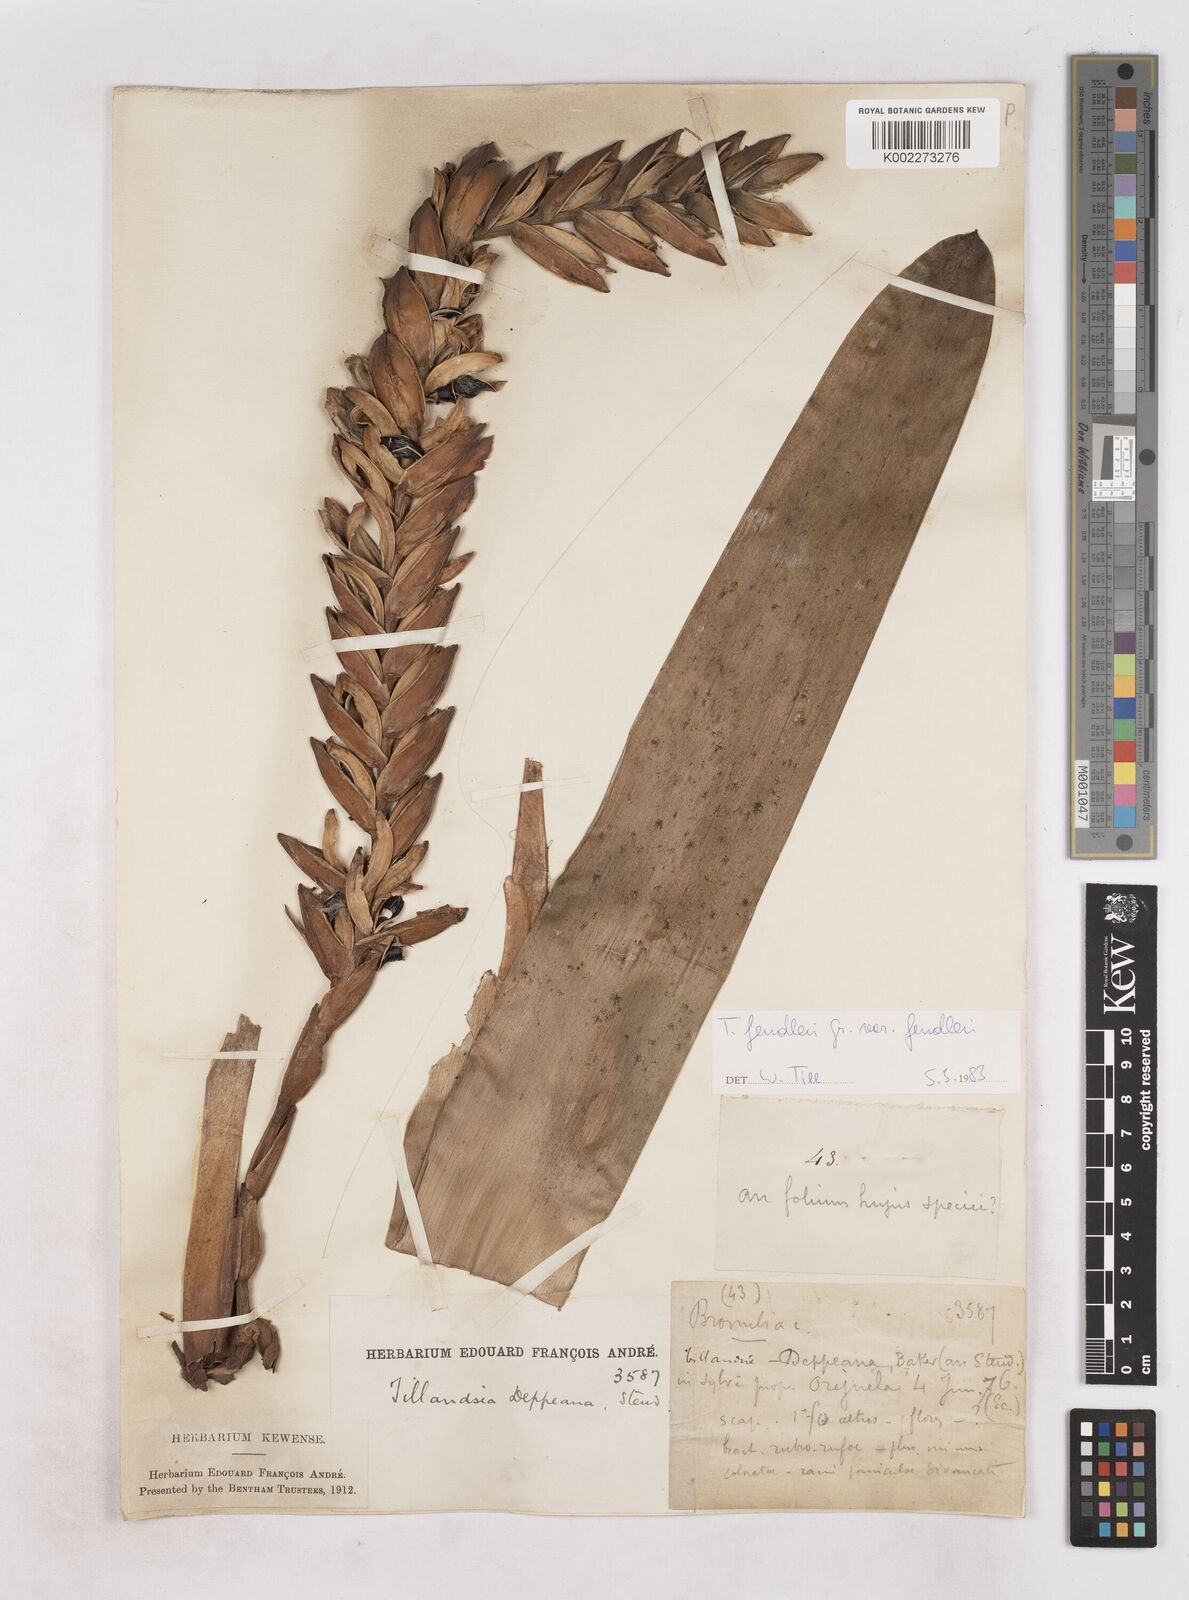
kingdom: Plantae
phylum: Tracheophyta
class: Liliopsida
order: Poales
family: Bromeliaceae
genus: Tillandsia
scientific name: Tillandsia fendleri
